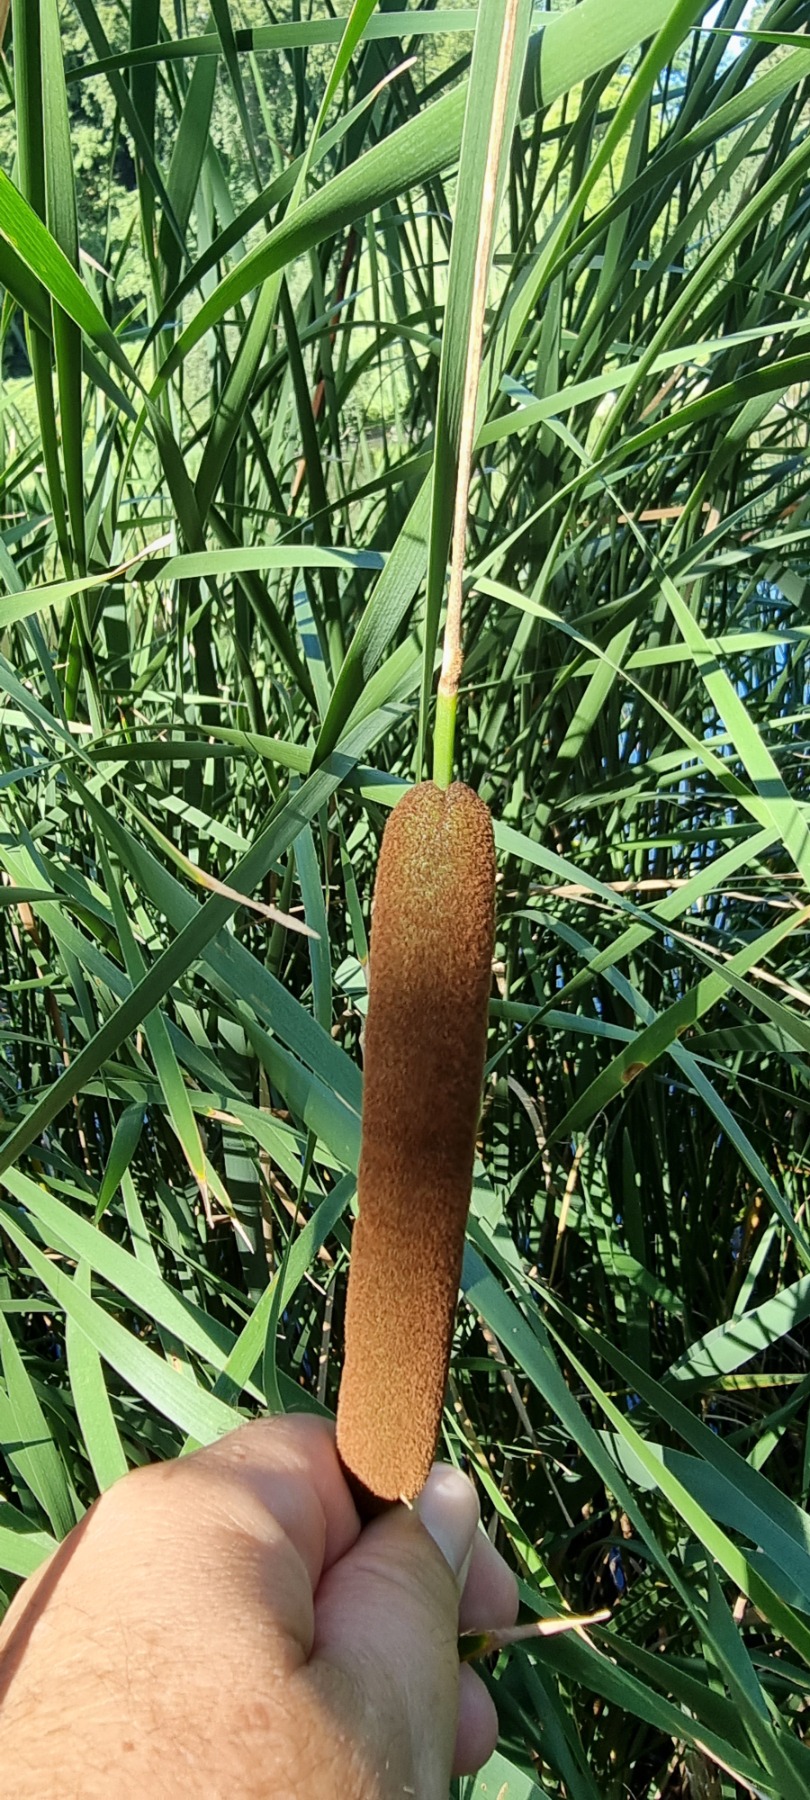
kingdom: Plantae
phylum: Tracheophyta
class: Liliopsida
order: Poales
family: Typhaceae
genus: Typha
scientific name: Typha angustifolia
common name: Smalbladet dunhammer
